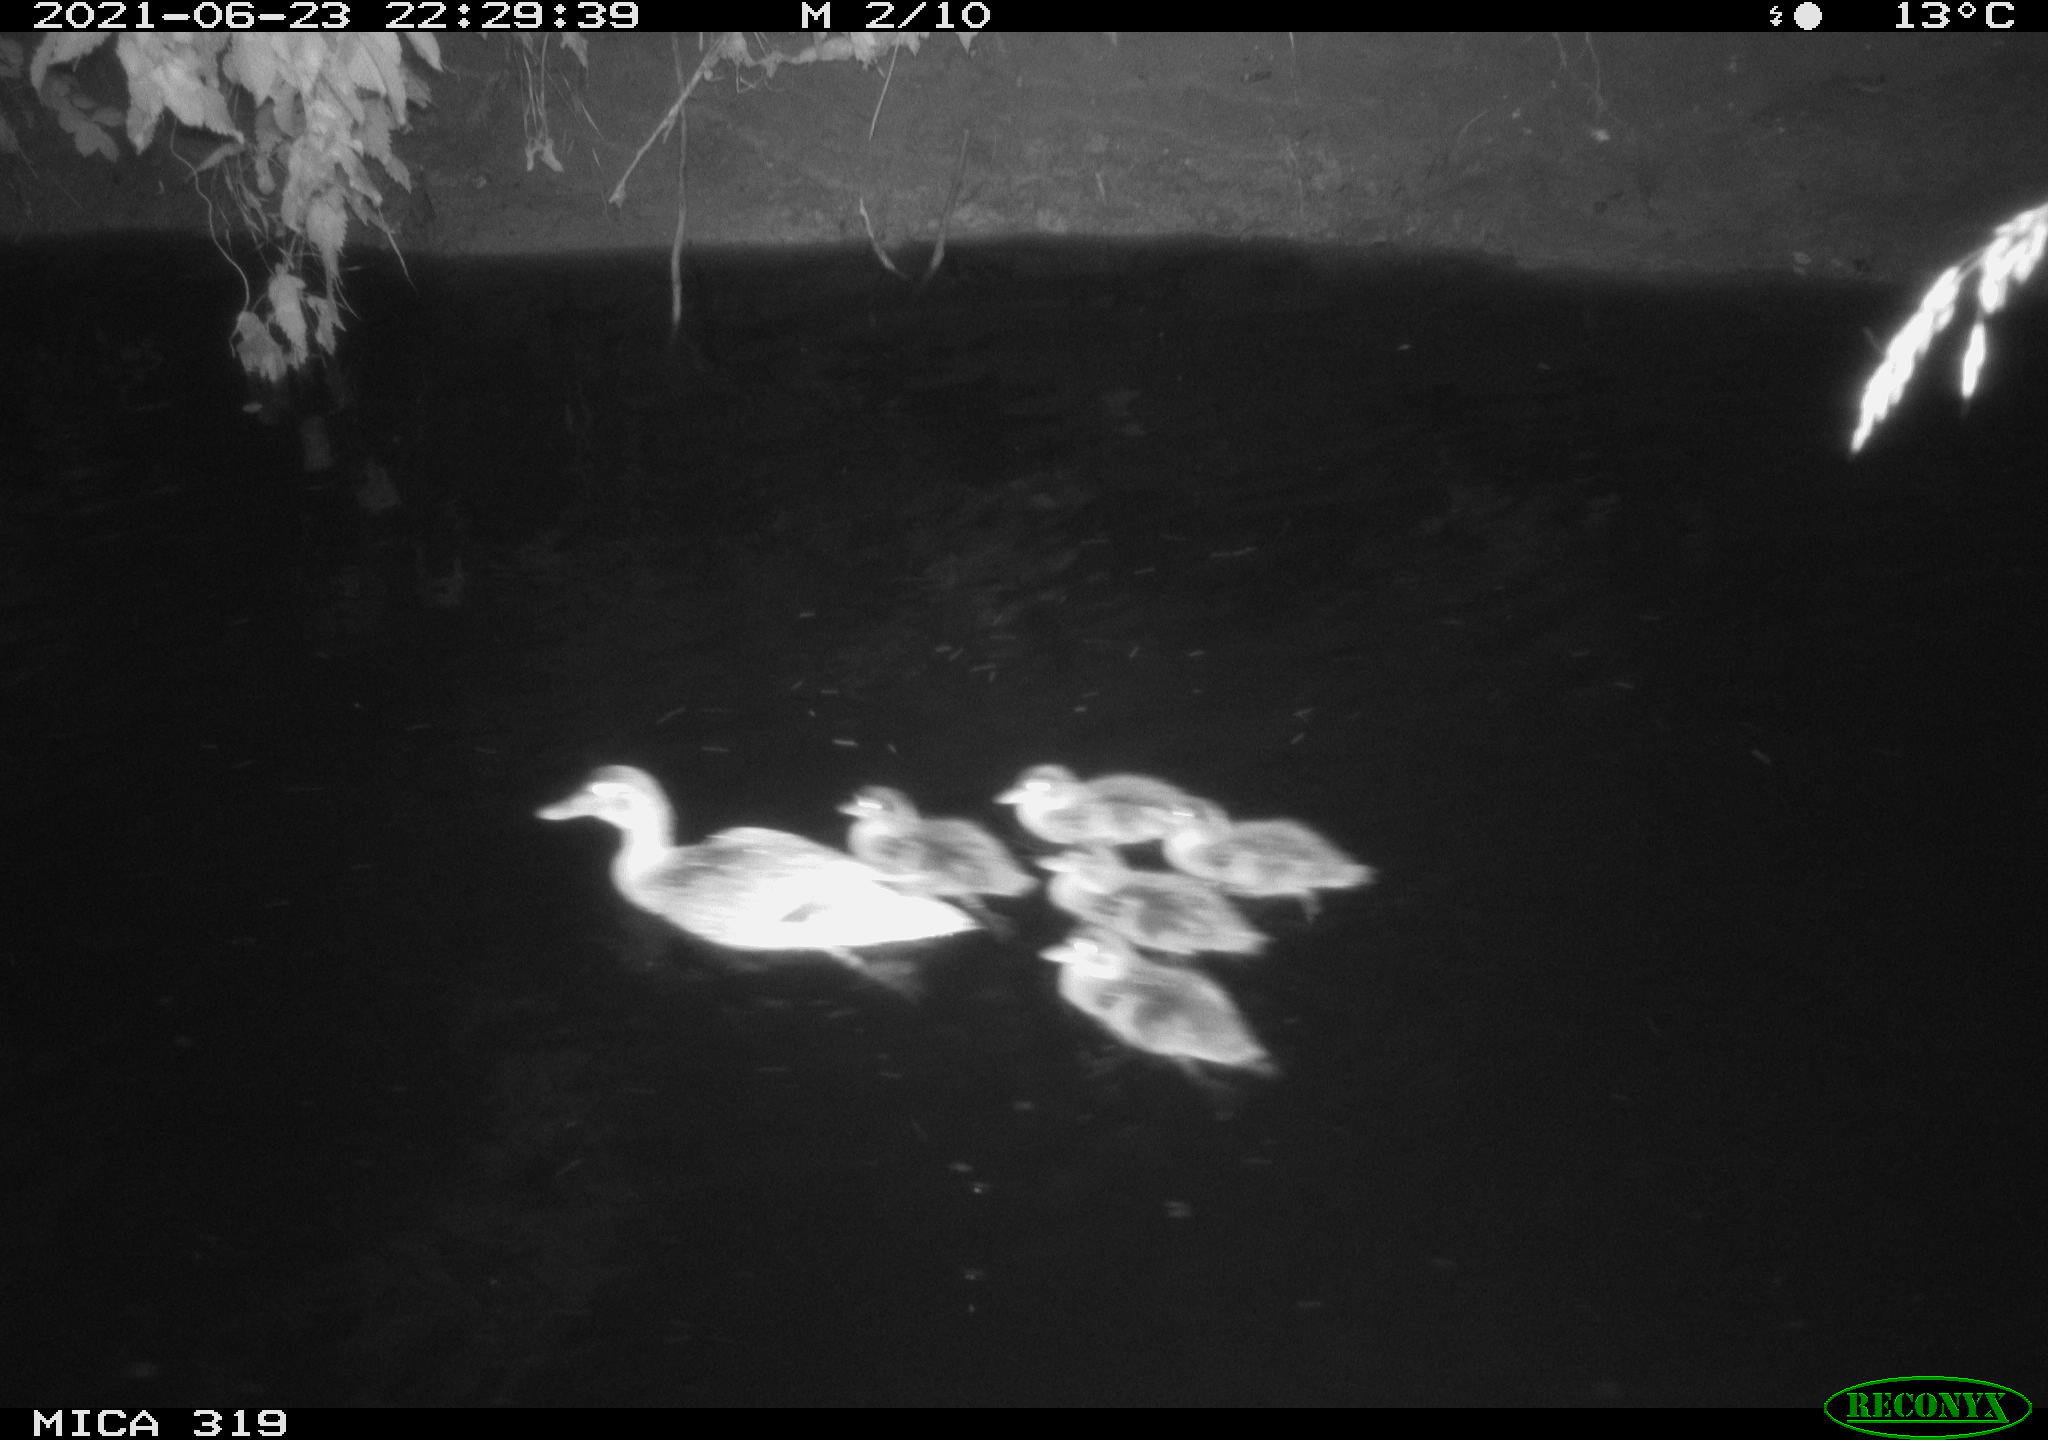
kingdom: Animalia
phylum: Chordata
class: Aves
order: Anseriformes
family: Anatidae
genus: Anas
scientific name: Anas platyrhynchos
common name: Mallard
